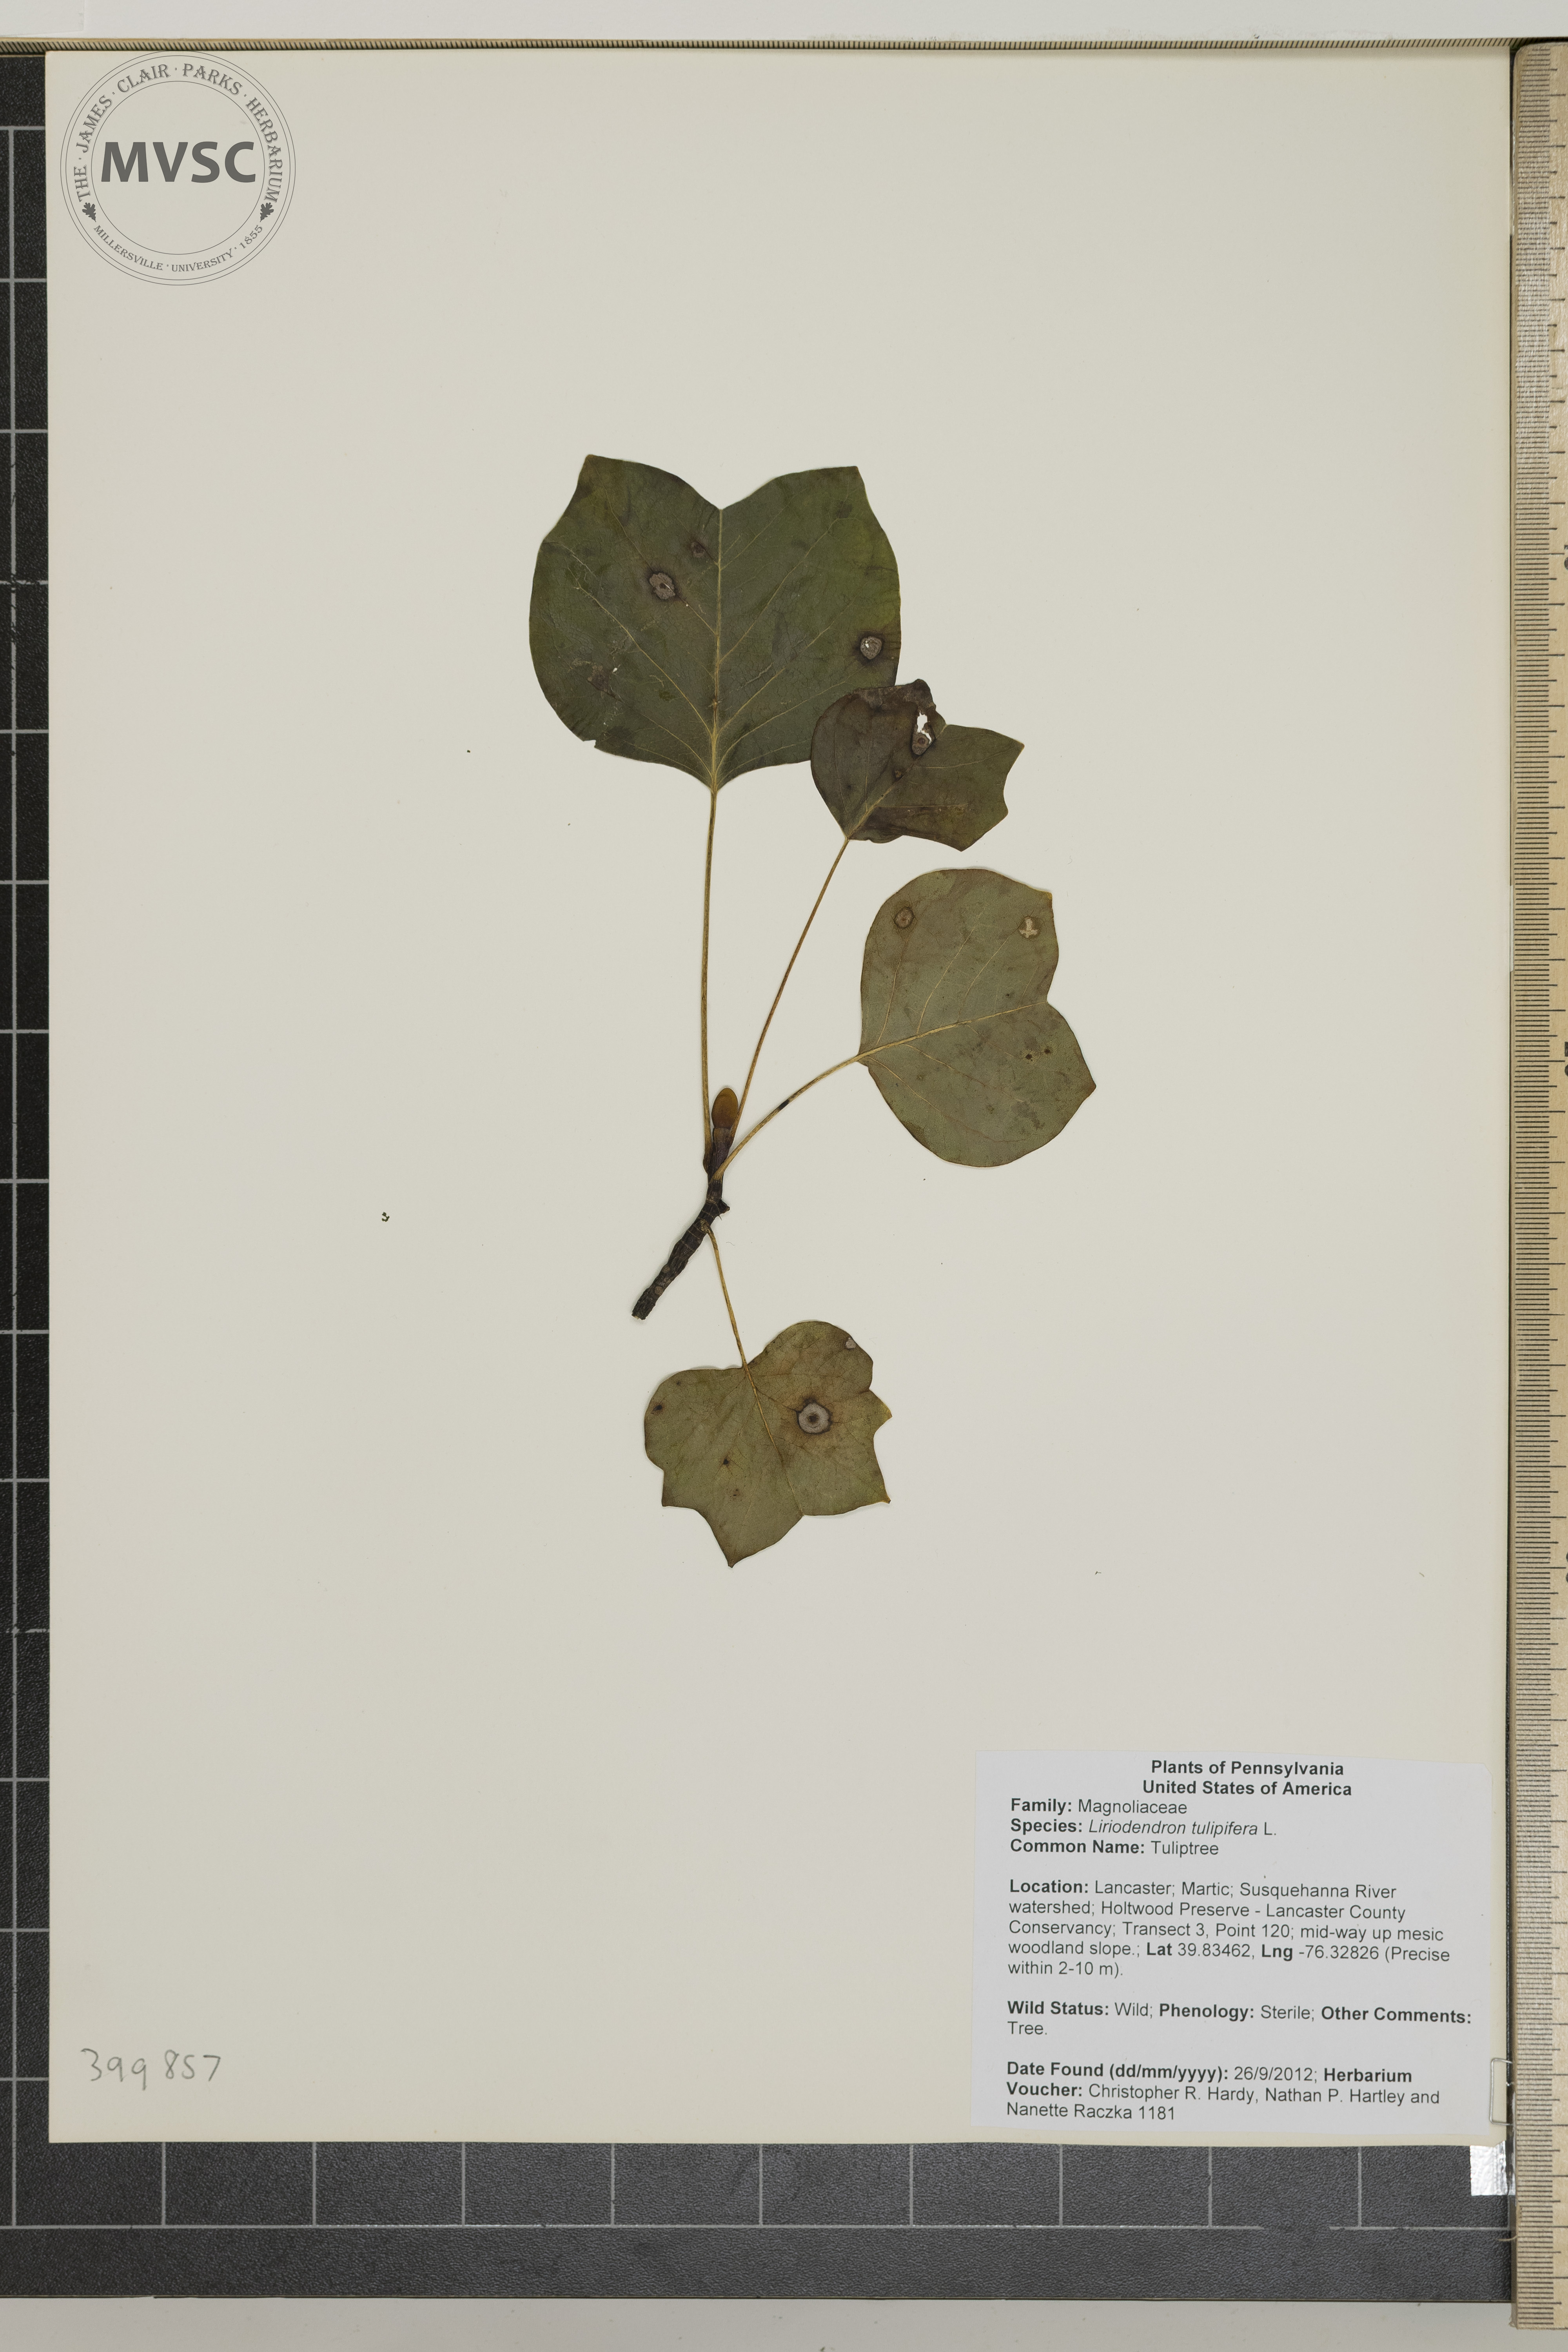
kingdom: Plantae
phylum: Tracheophyta
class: Magnoliopsida
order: Magnoliales
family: Magnoliaceae
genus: Liriodendron
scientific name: Liriodendron tulipifera
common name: Tuliptree
